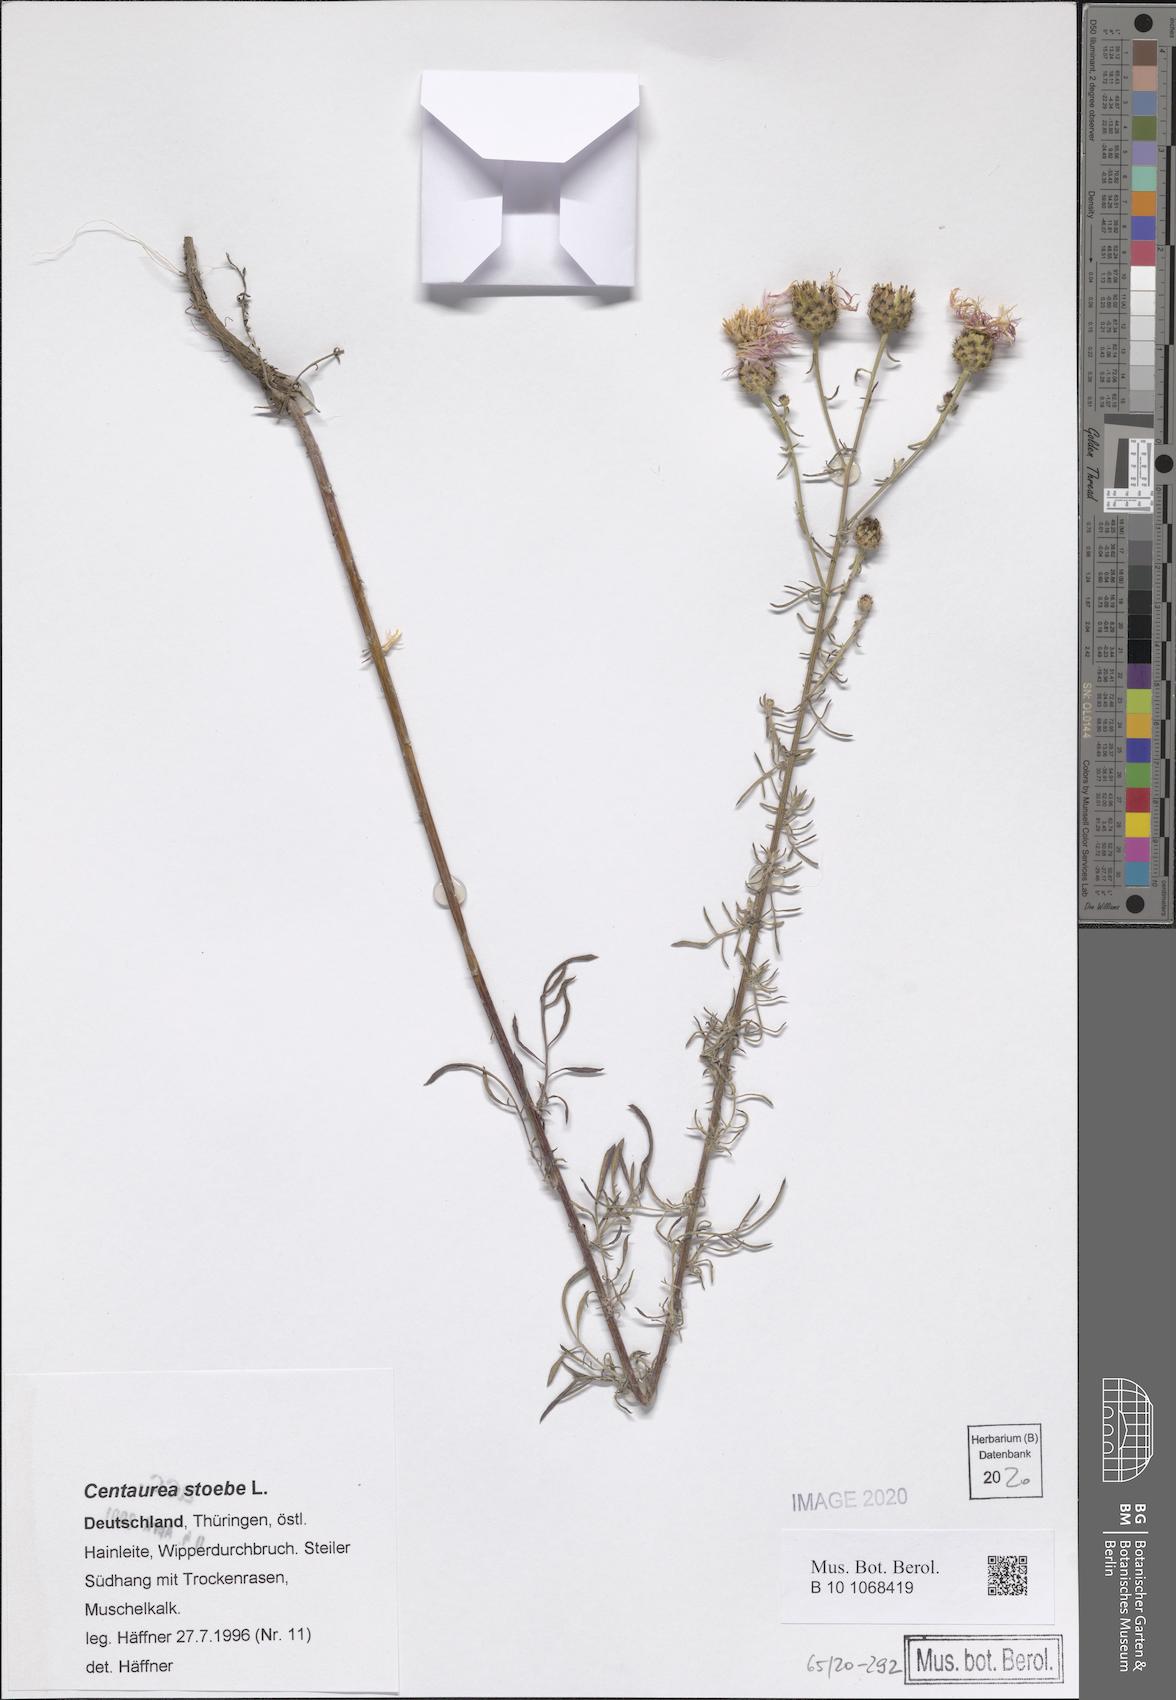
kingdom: Plantae
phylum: Tracheophyta
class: Magnoliopsida
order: Asterales
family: Asteraceae
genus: Centaurea
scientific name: Centaurea stoebe
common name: Spotted knapweed
